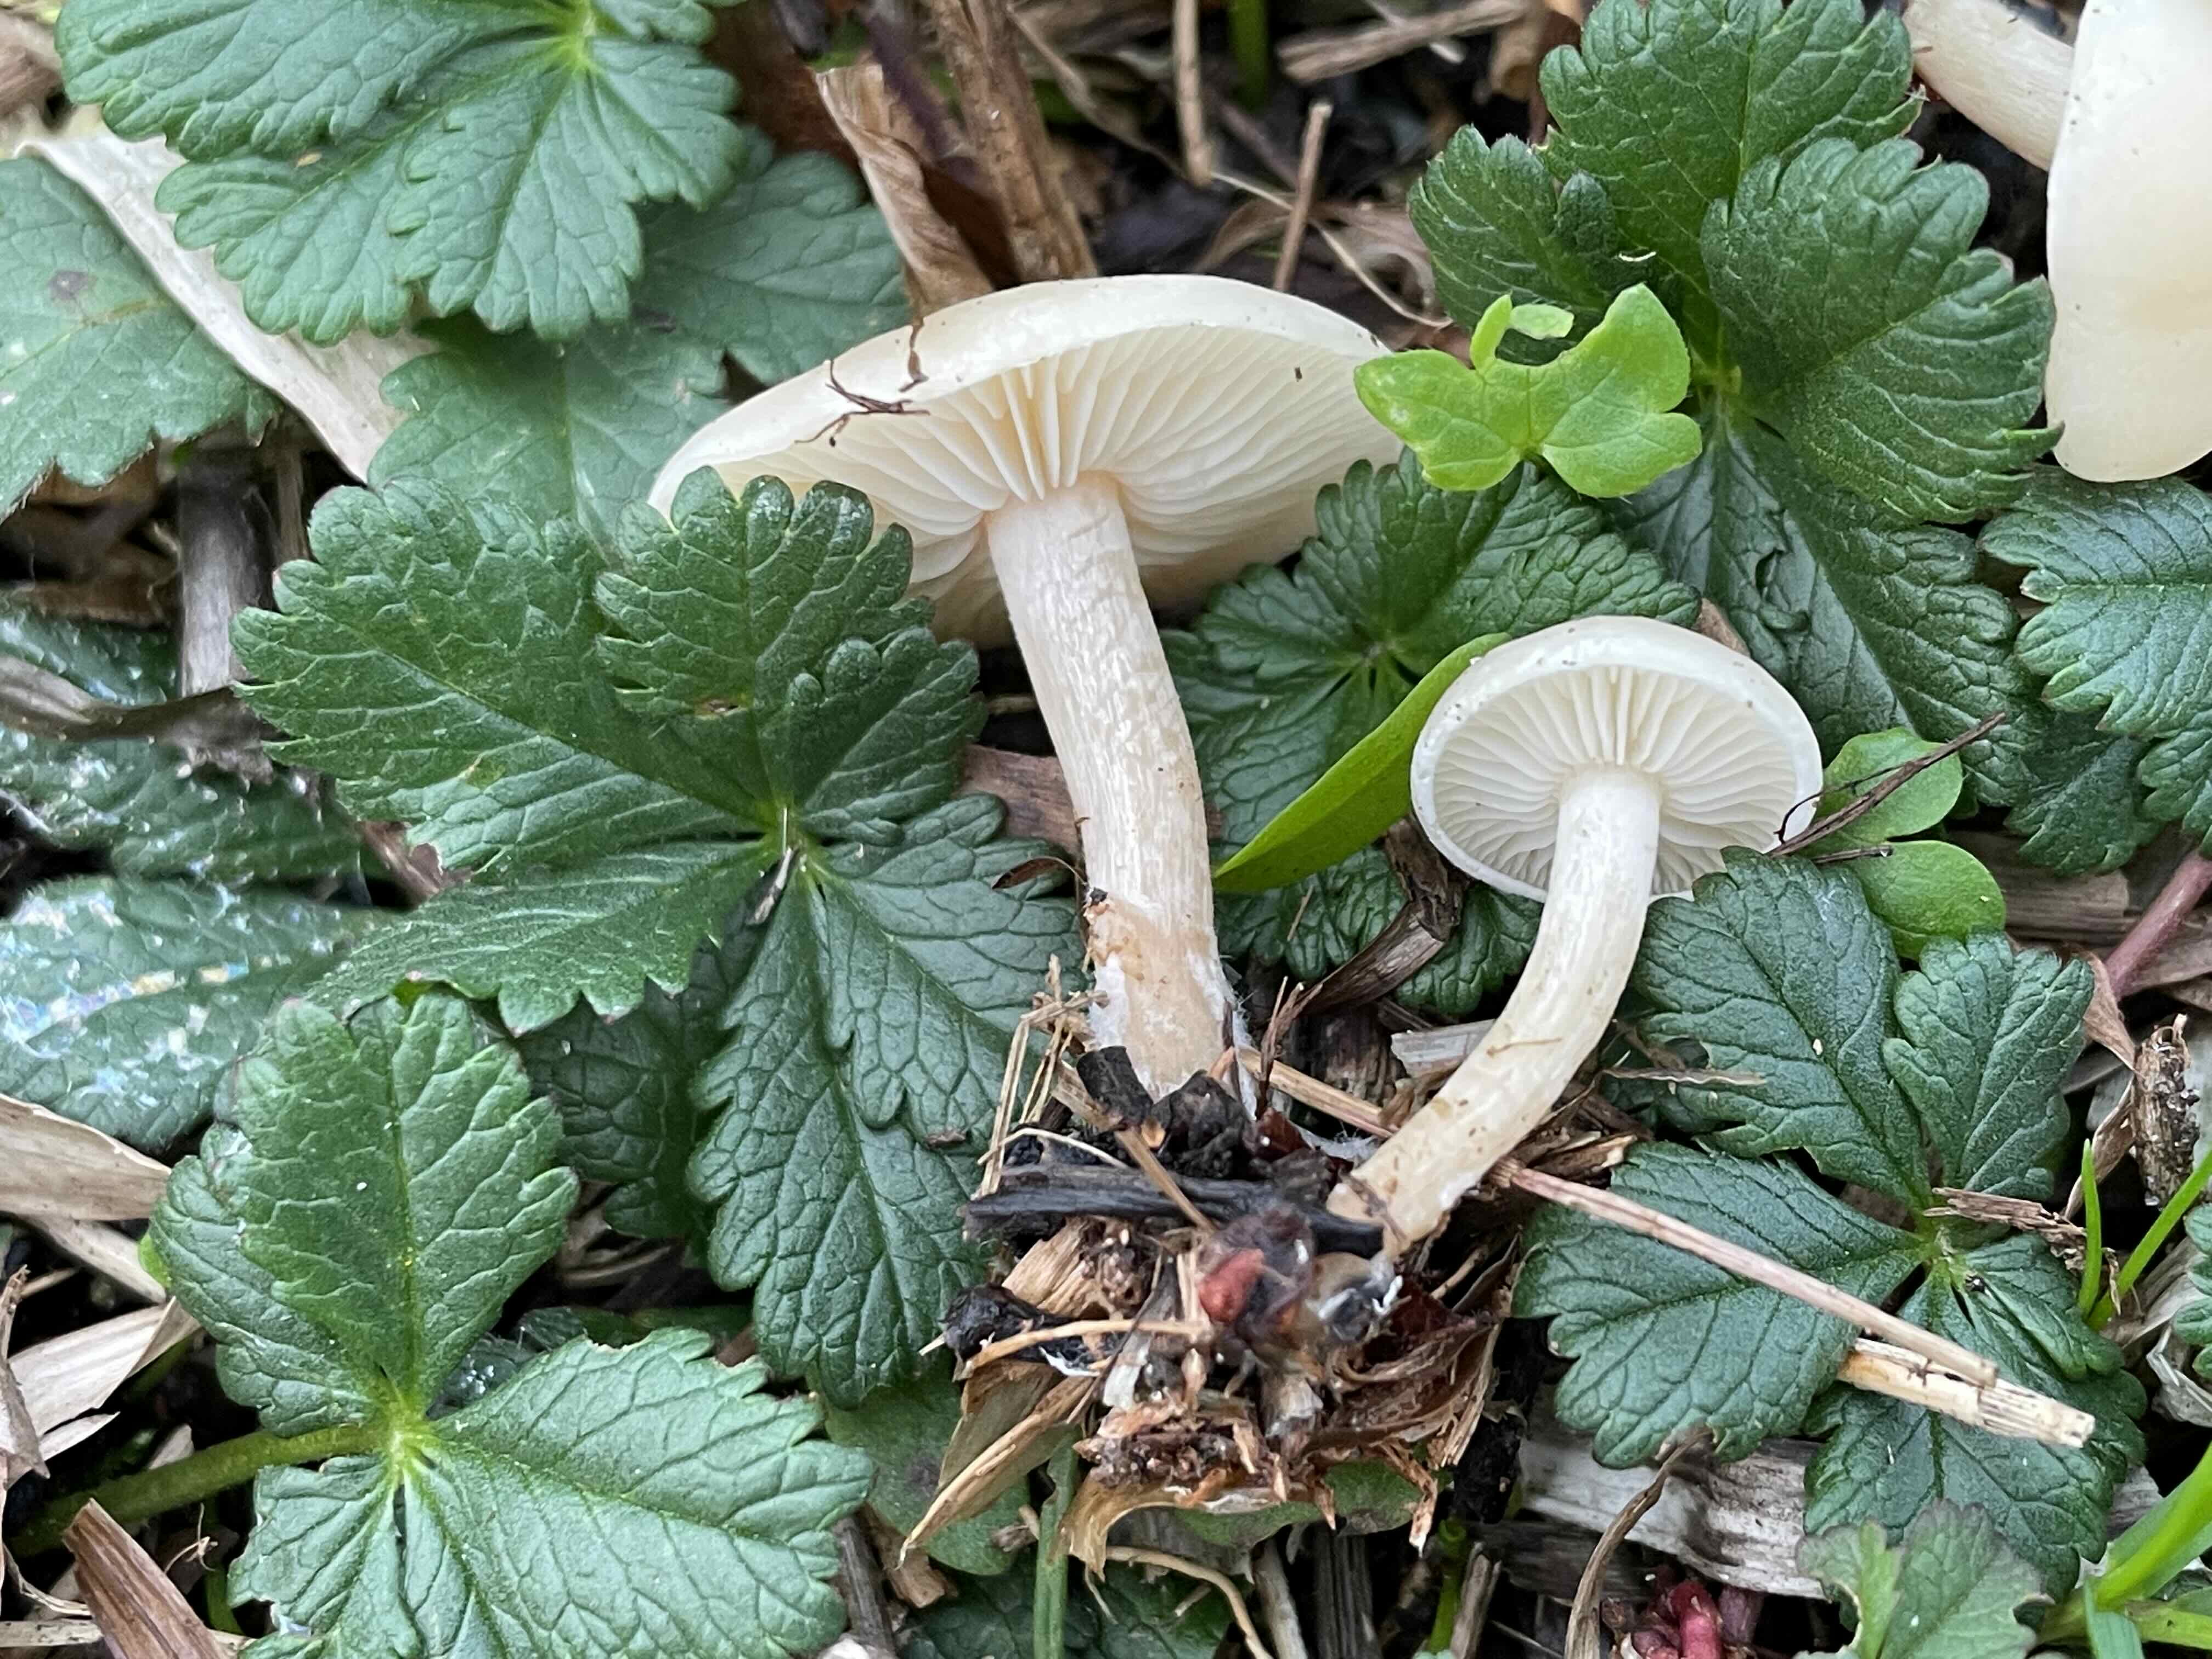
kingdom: Fungi
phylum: Basidiomycota
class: Agaricomycetes
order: Agaricales
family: Tricholomataceae
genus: Clitocybe
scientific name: Clitocybe
